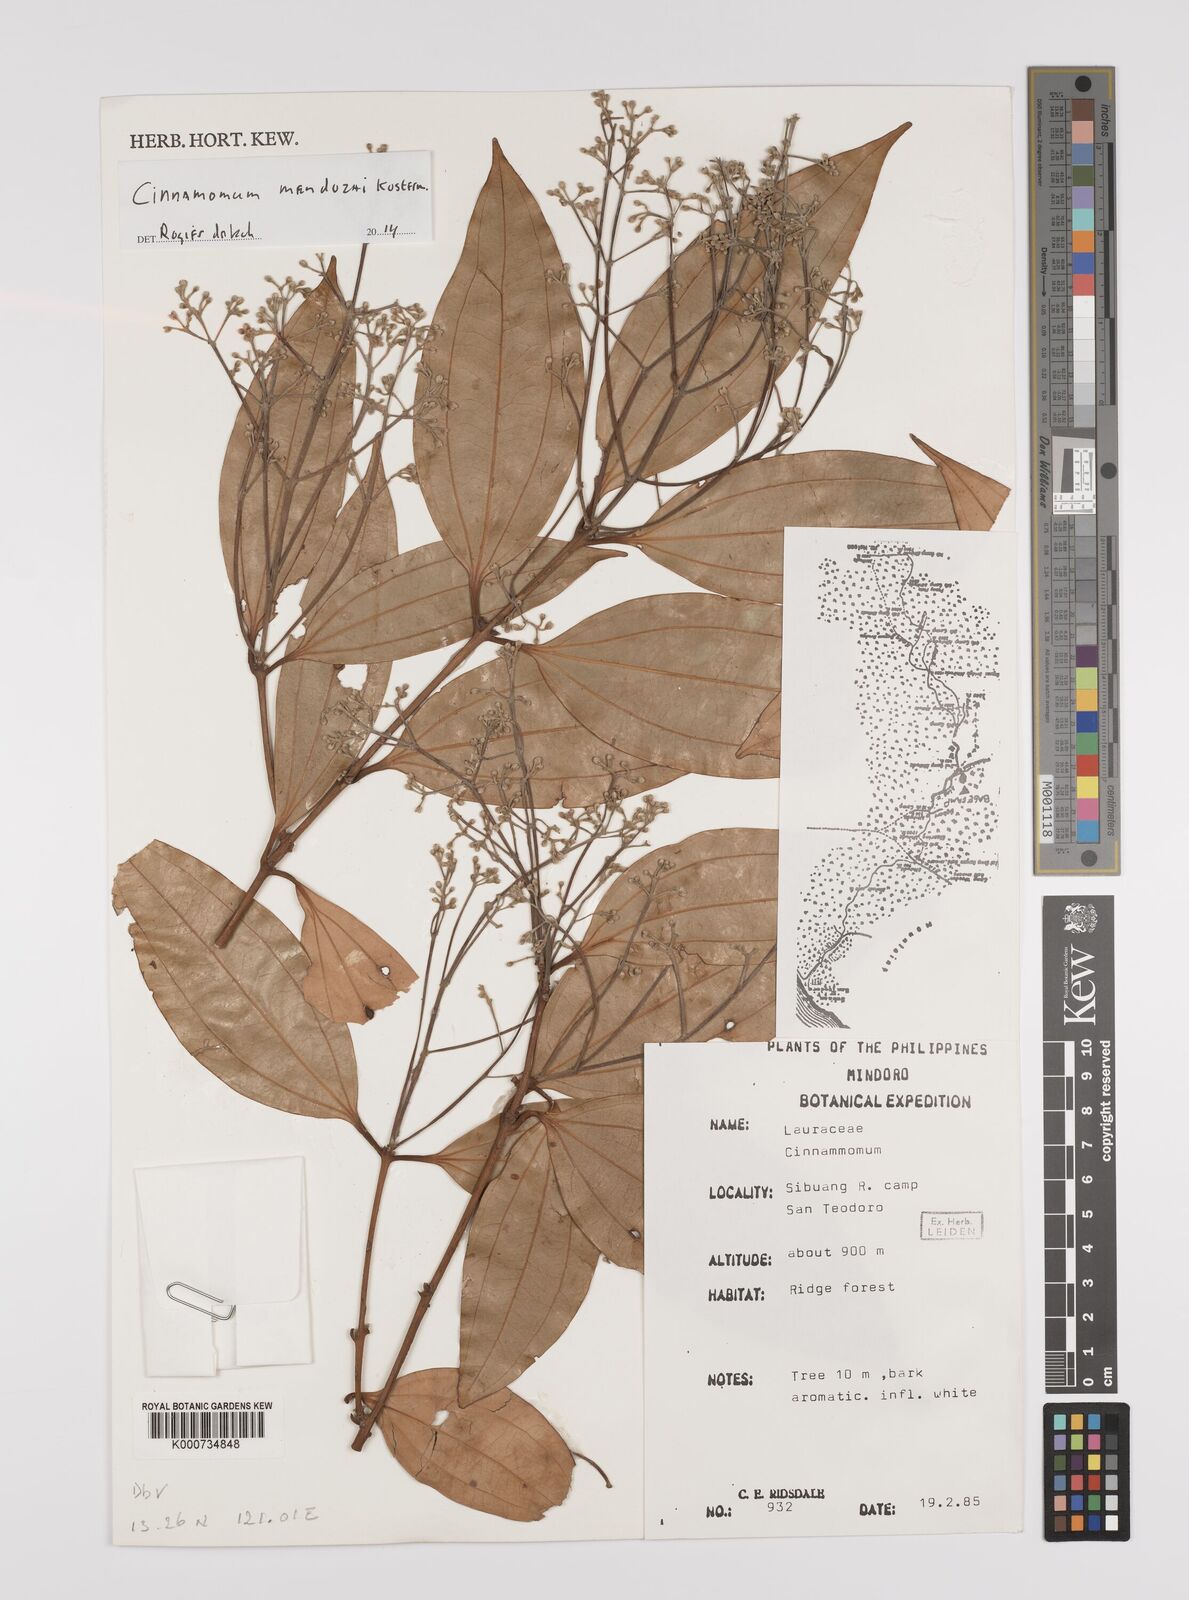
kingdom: Plantae
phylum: Tracheophyta
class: Magnoliopsida
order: Laurales
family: Lauraceae
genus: Cinnamomum
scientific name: Cinnamomum
